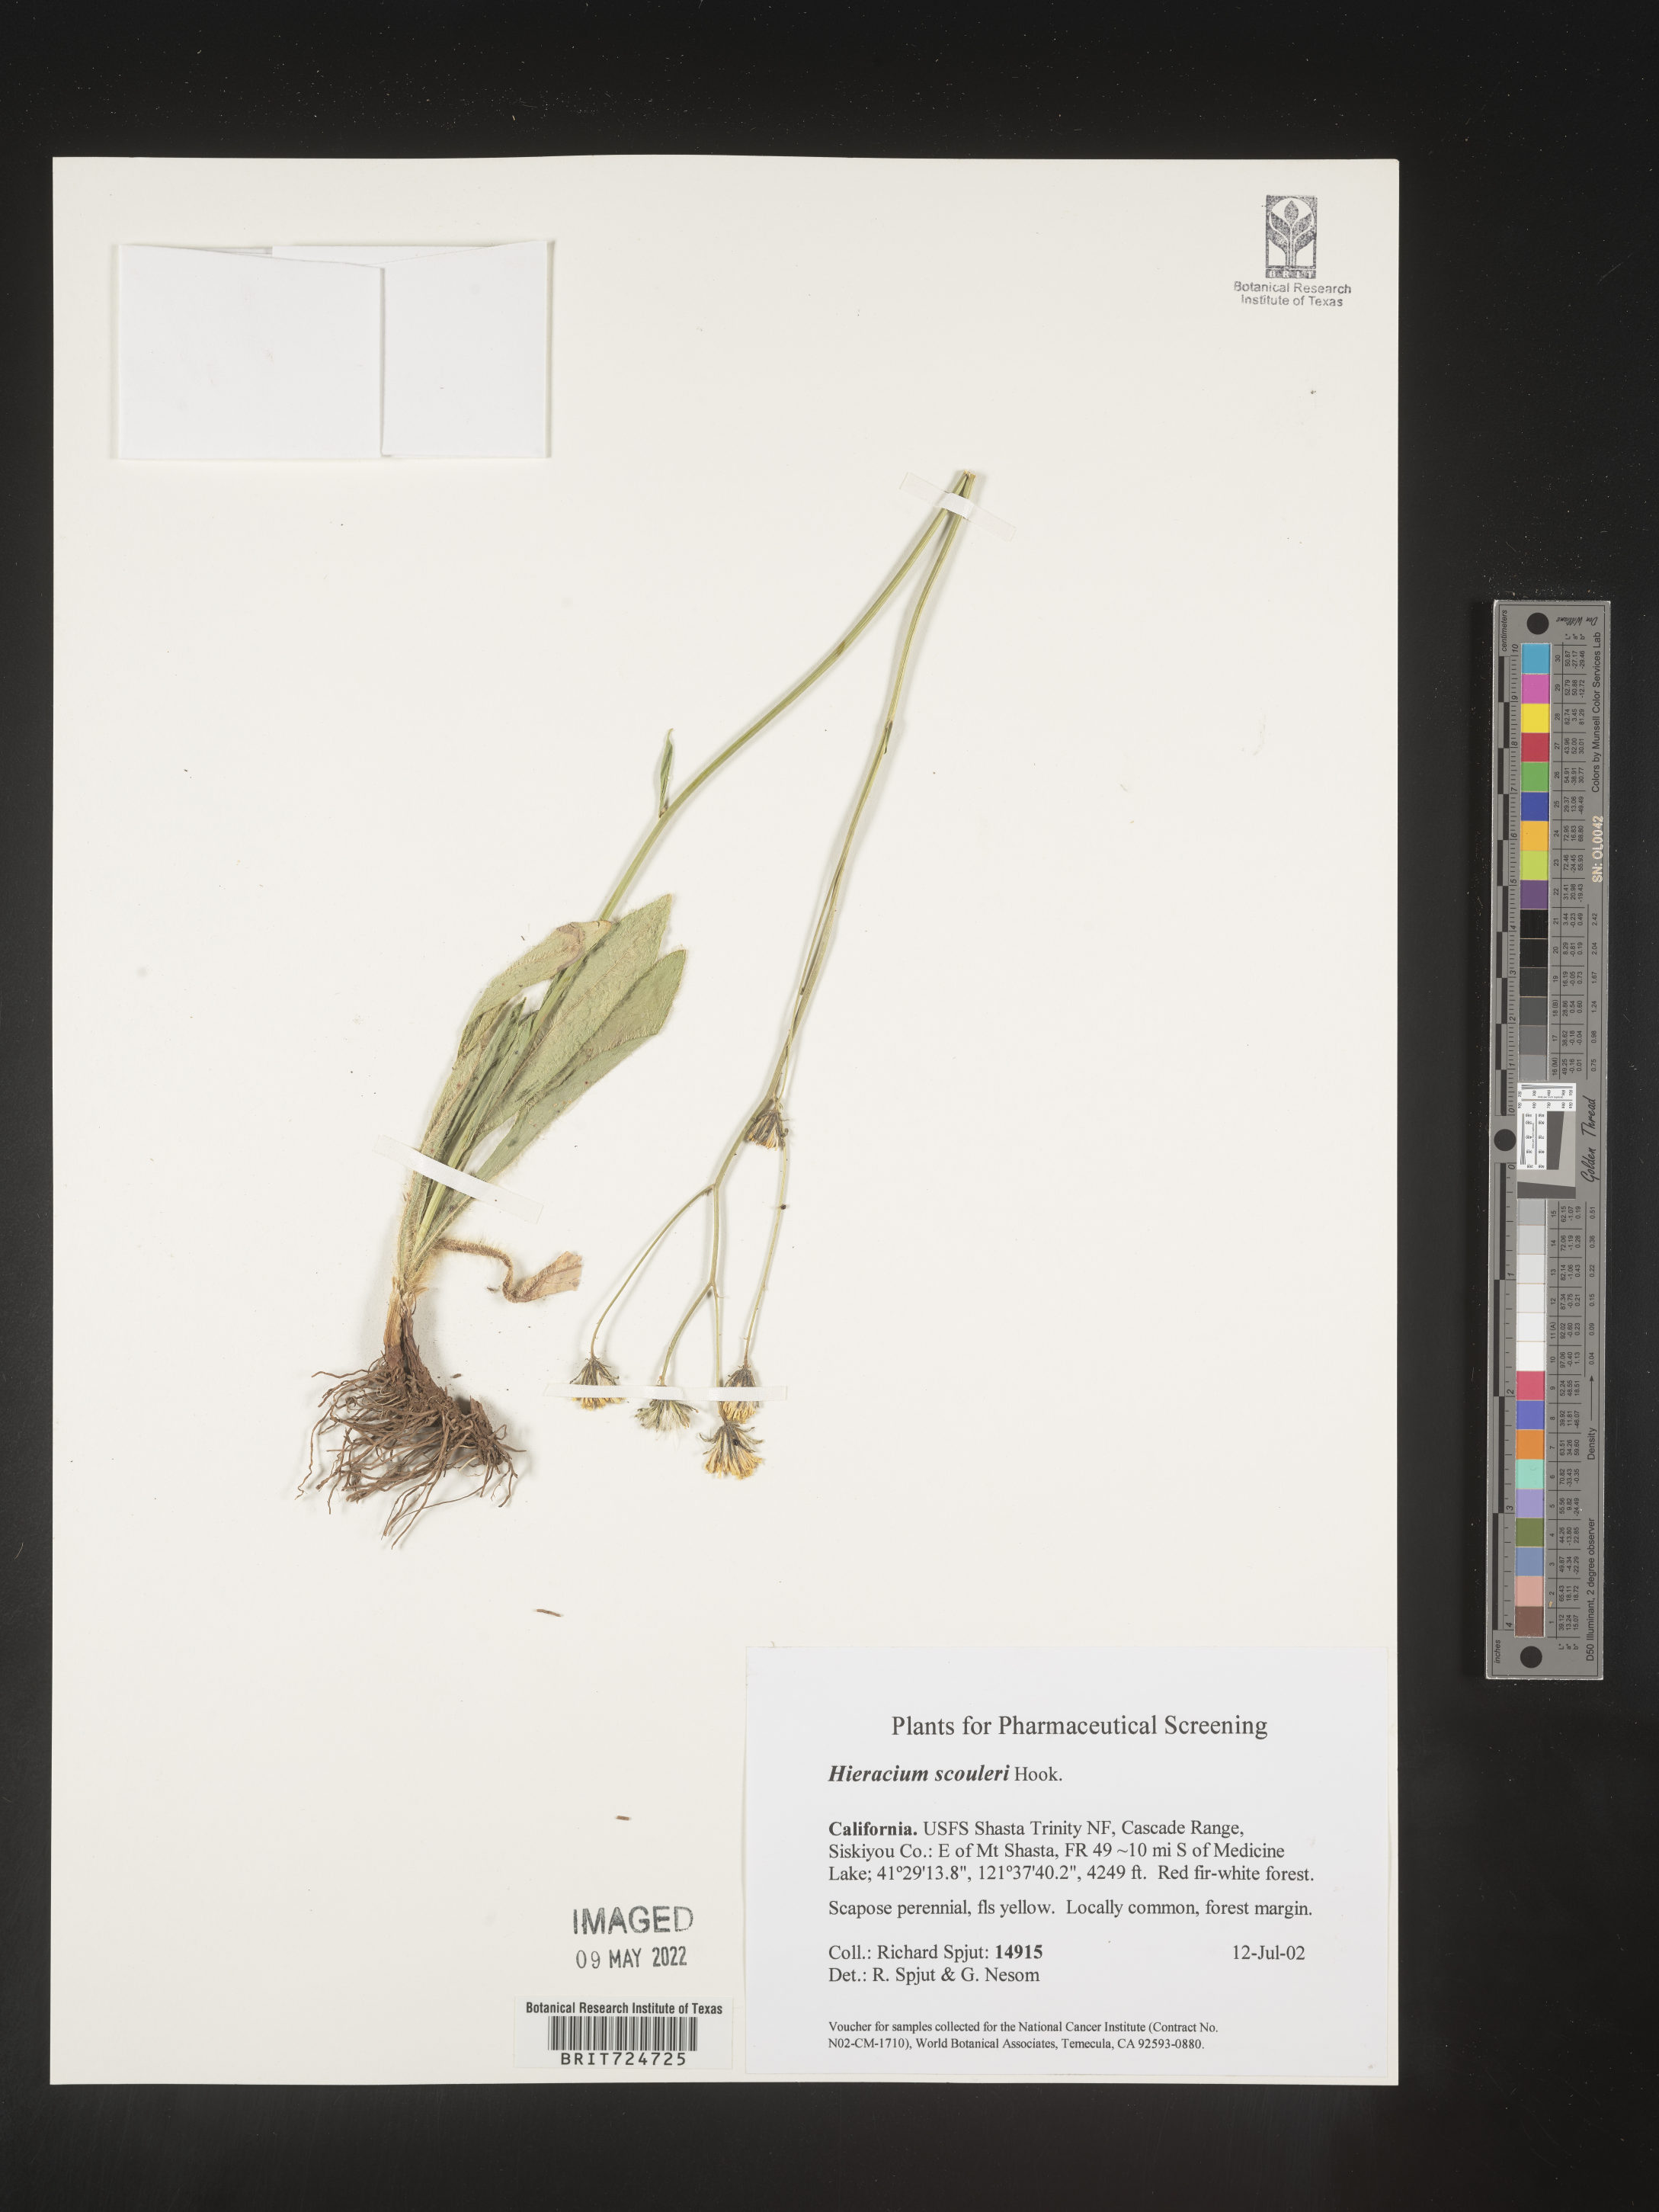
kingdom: Plantae
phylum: Tracheophyta
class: Magnoliopsida
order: Asterales
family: Asteraceae
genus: Hieracium
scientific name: Hieracium scabrum
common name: Rough hawkweed
